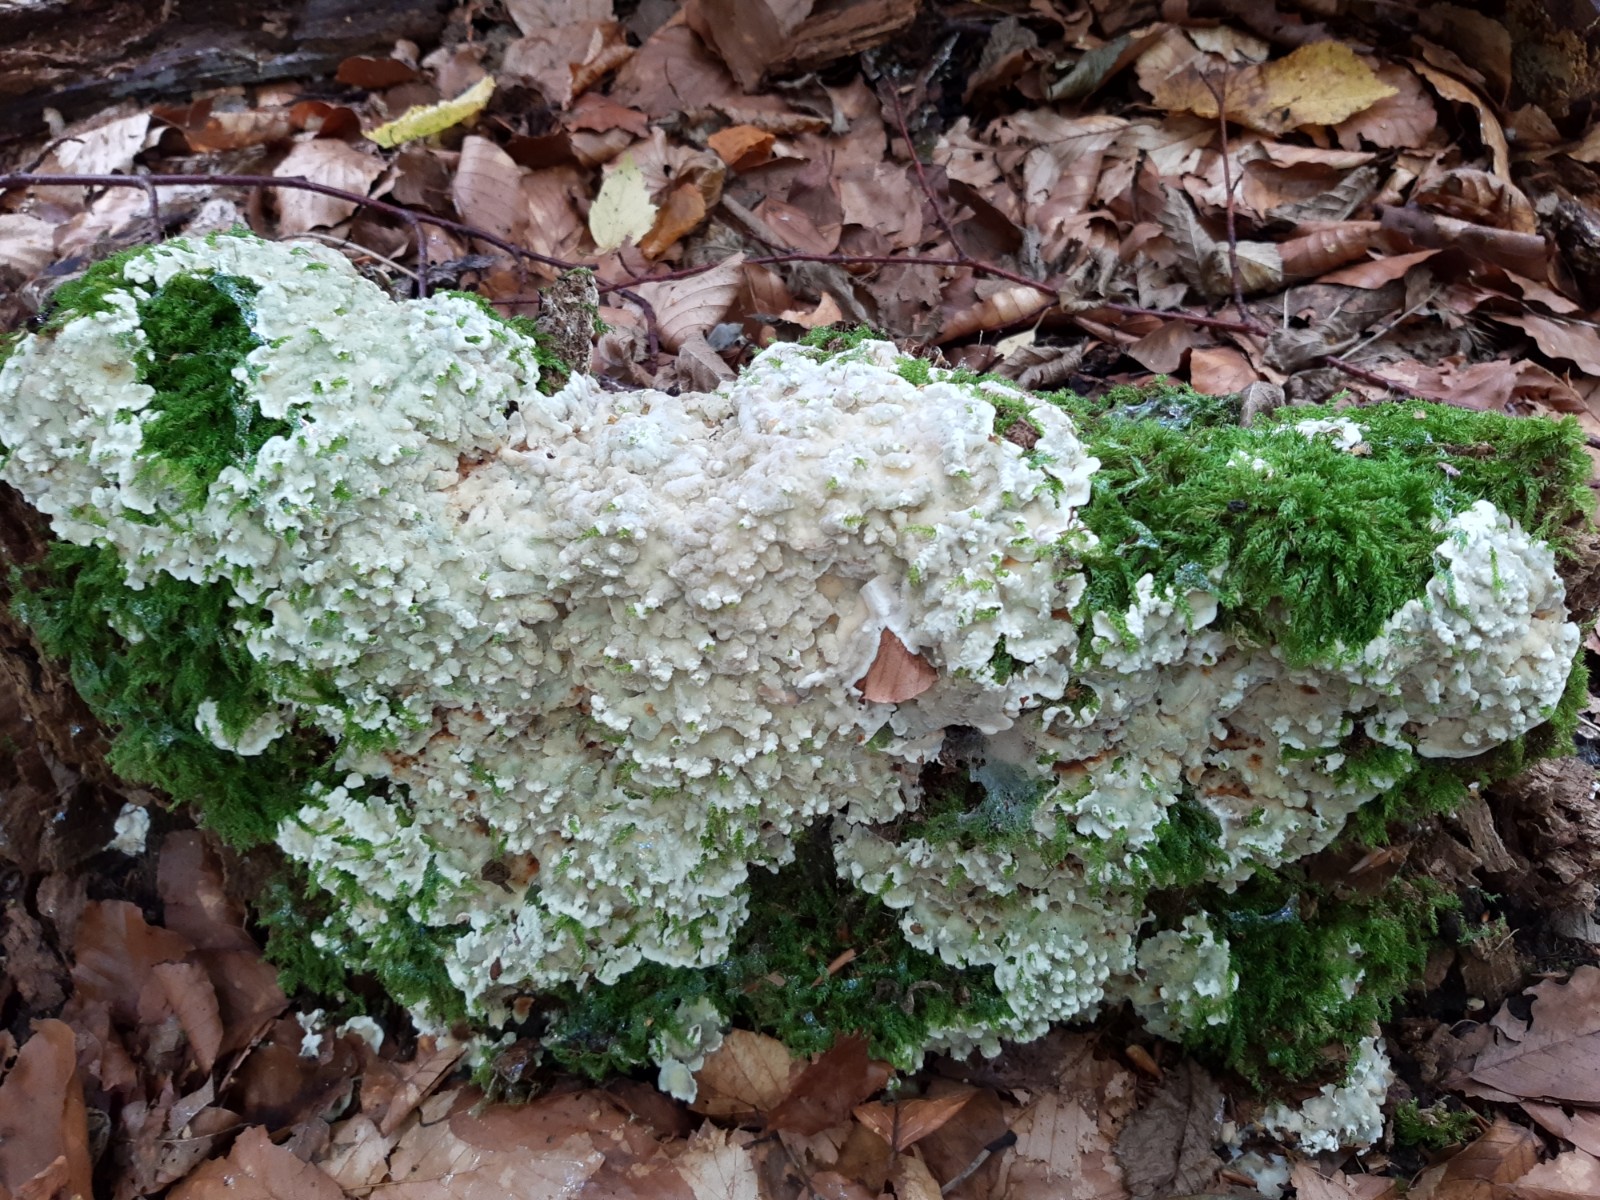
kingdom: Fungi
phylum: Basidiomycota
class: Agaricomycetes
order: Polyporales
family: Meruliaceae
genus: Physisporinus
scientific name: Physisporinus vitreus
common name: mastesvamp
